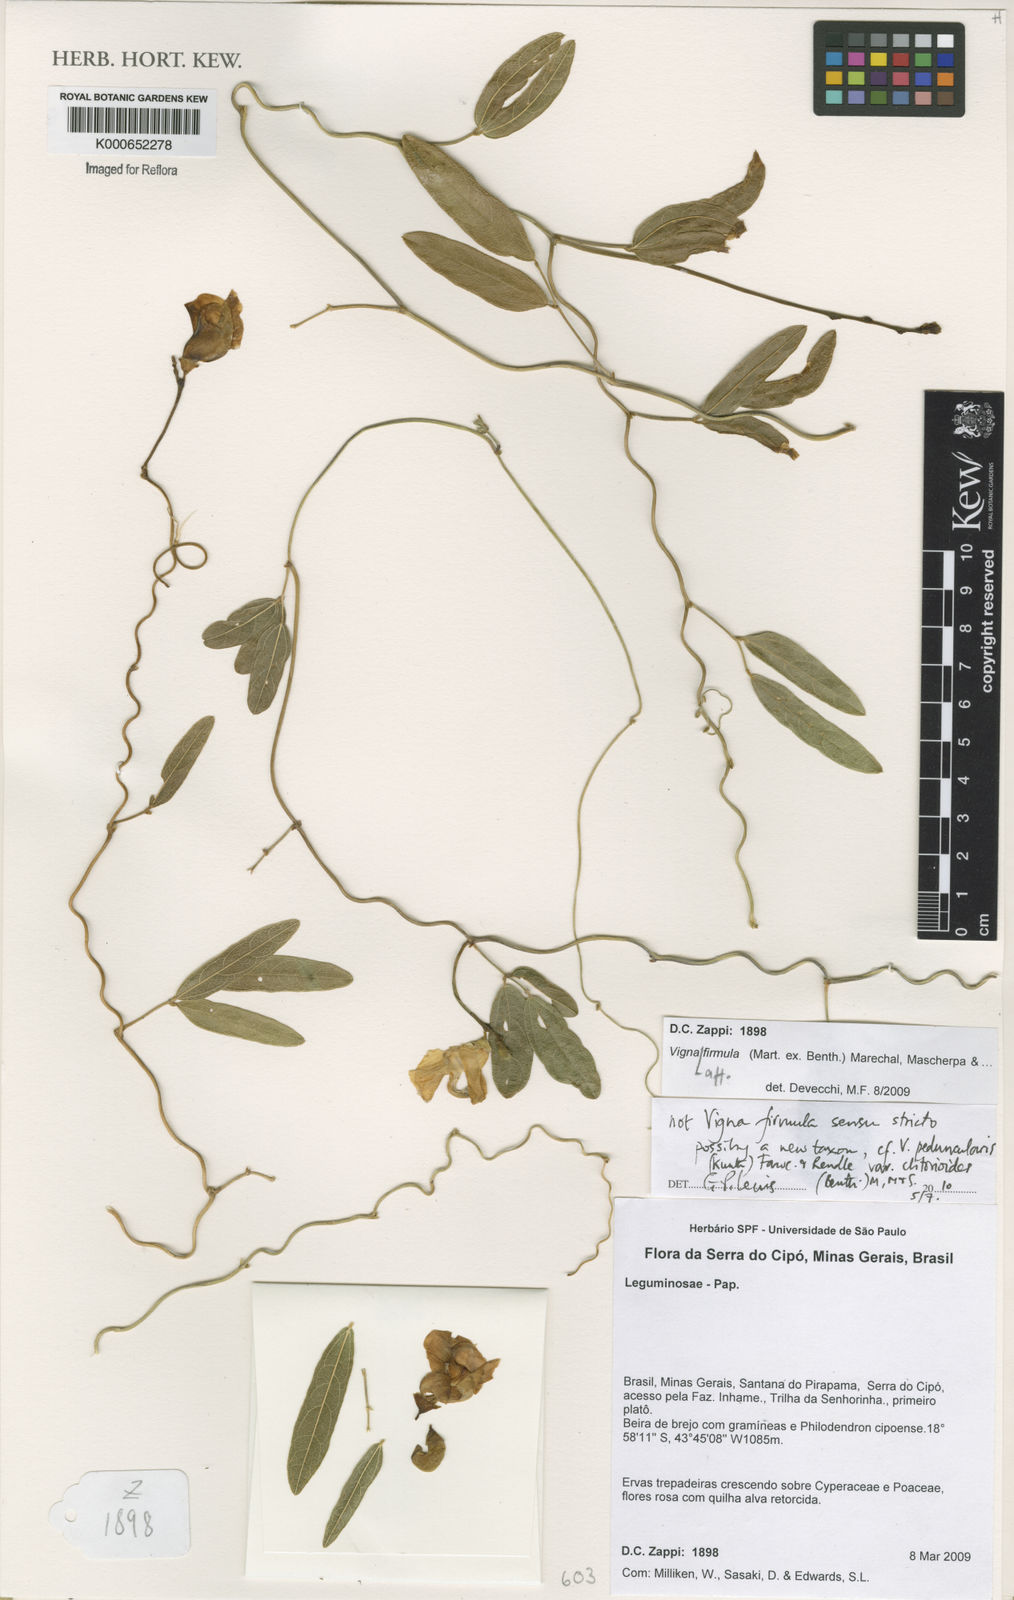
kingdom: Plantae
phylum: Tracheophyta
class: Magnoliopsida
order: Fabales
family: Fabaceae
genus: Ancistrotropis
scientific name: Ancistrotropis firmula
